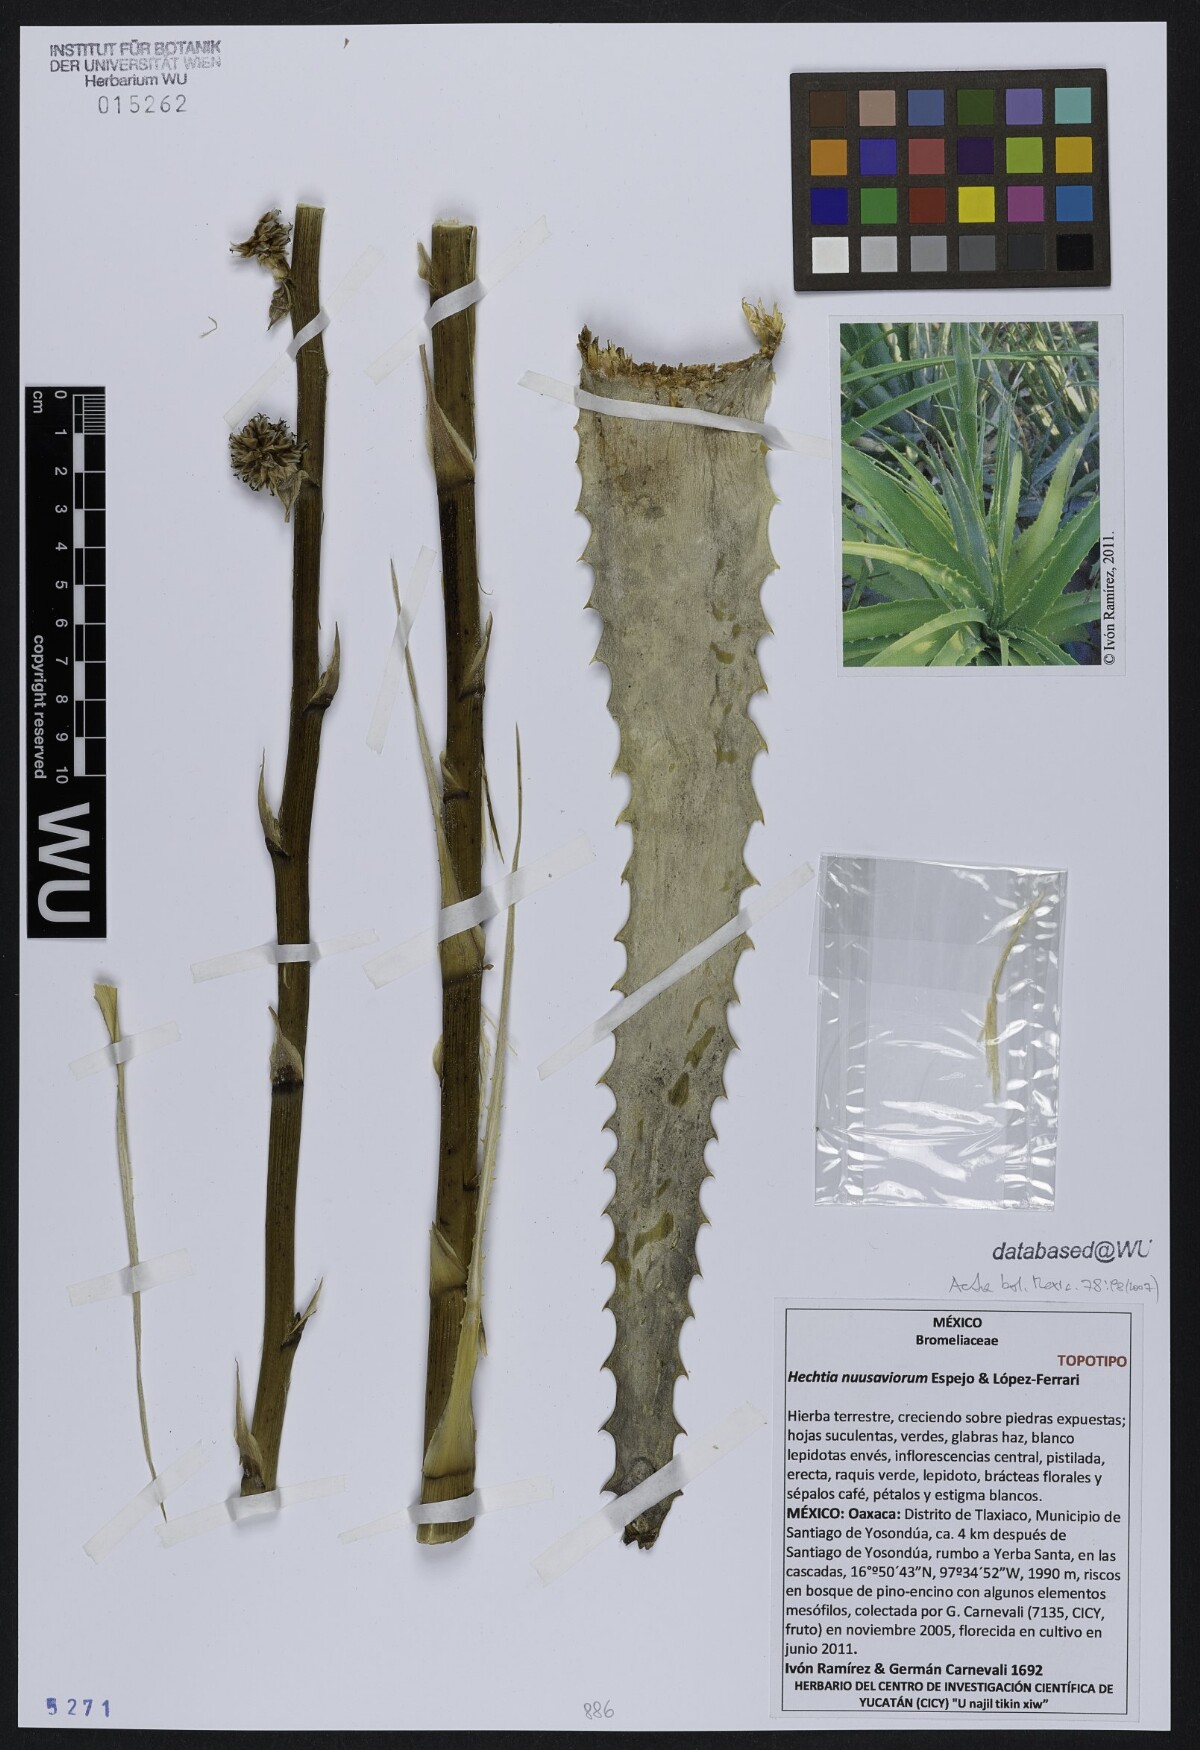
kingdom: Plantae
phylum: Tracheophyta
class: Liliopsida
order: Poales
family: Bromeliaceae
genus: Hechtia
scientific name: Hechtia nuusaviorum
